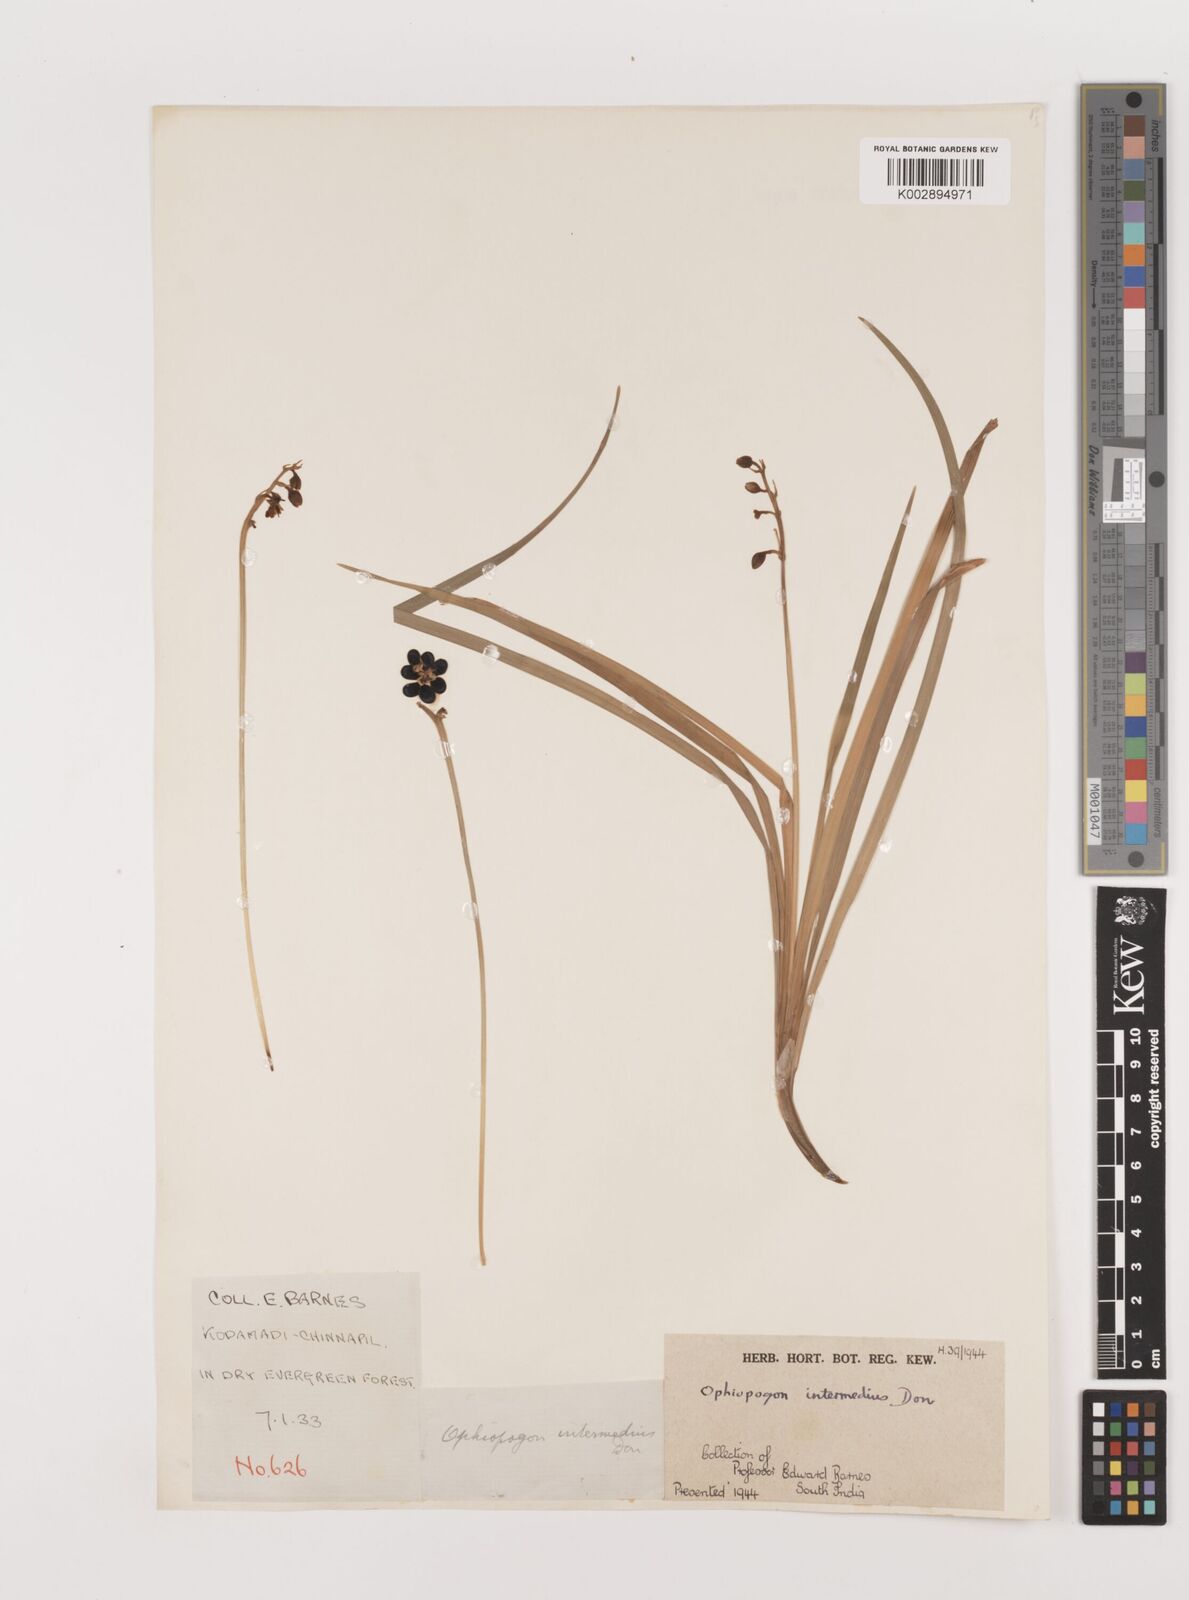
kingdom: Plantae
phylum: Tracheophyta
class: Liliopsida
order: Asparagales
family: Asparagaceae
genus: Ophiopogon
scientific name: Ophiopogon intermedius
